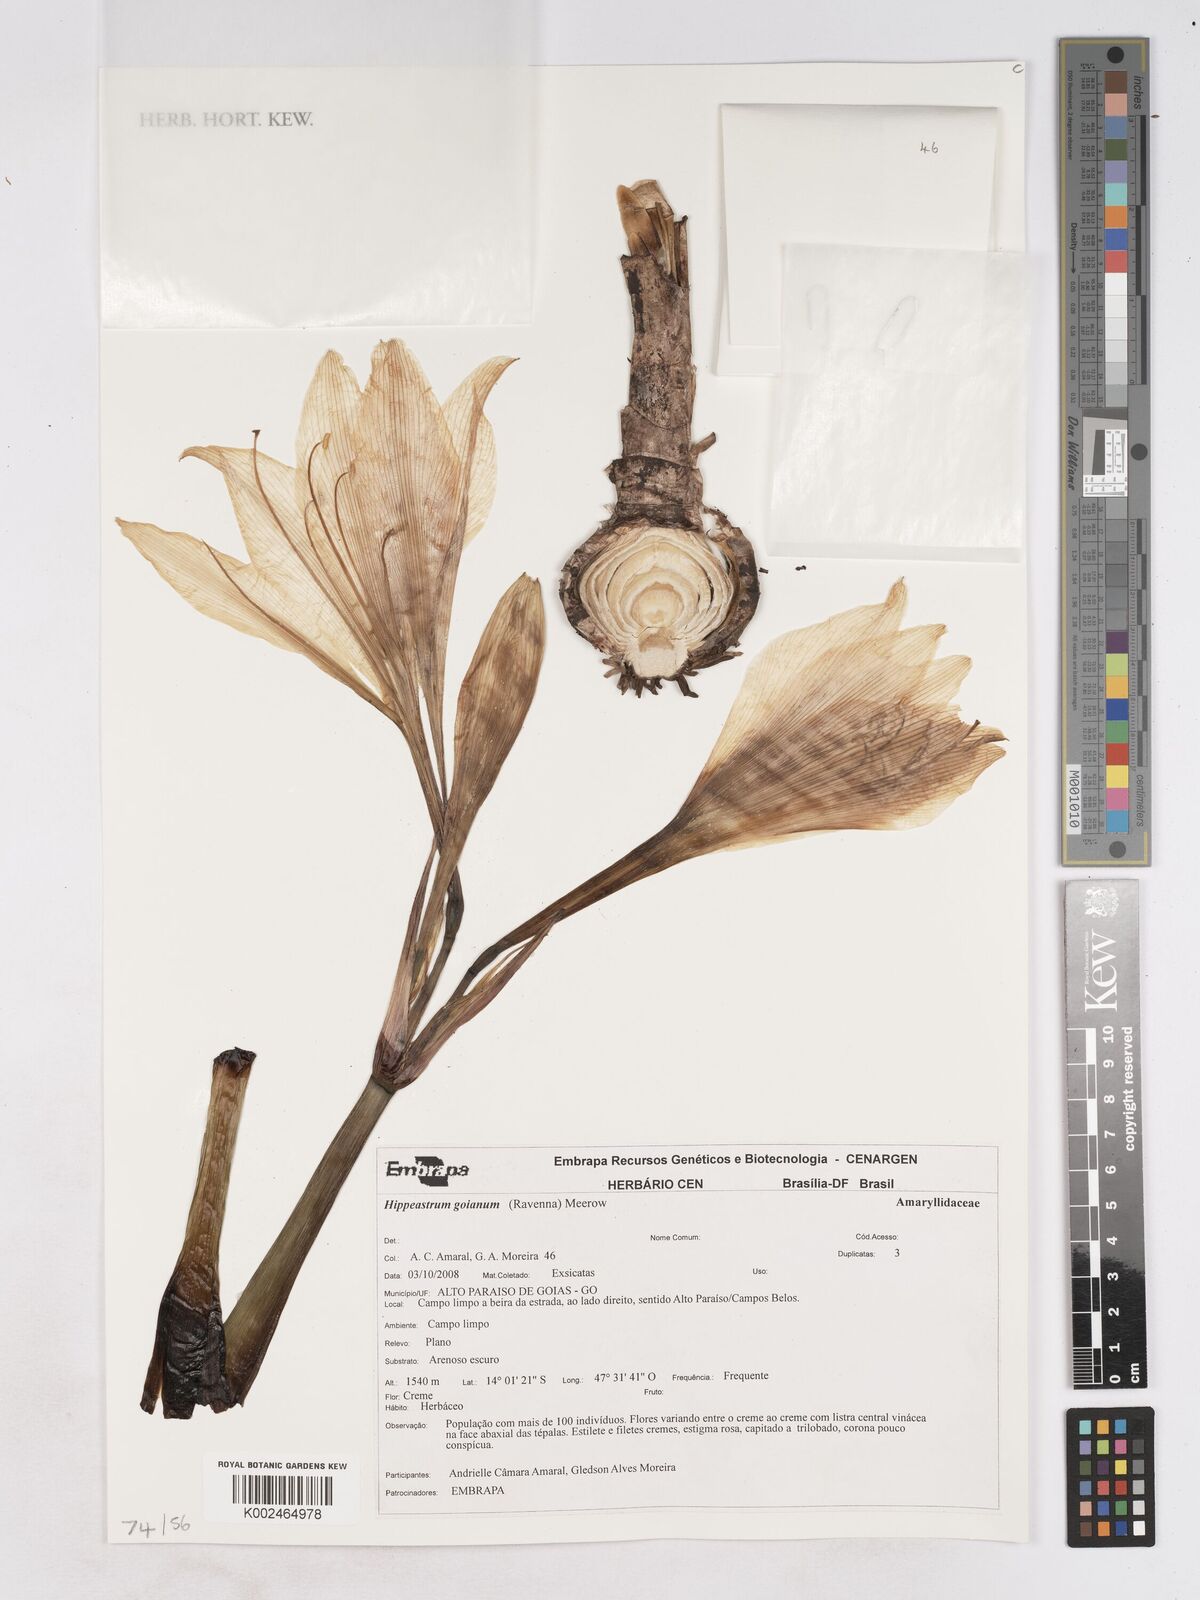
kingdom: Plantae
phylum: Tracheophyta
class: Liliopsida
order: Asparagales
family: Amaryllidaceae
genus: Hippeastrum
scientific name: Hippeastrum goianum
